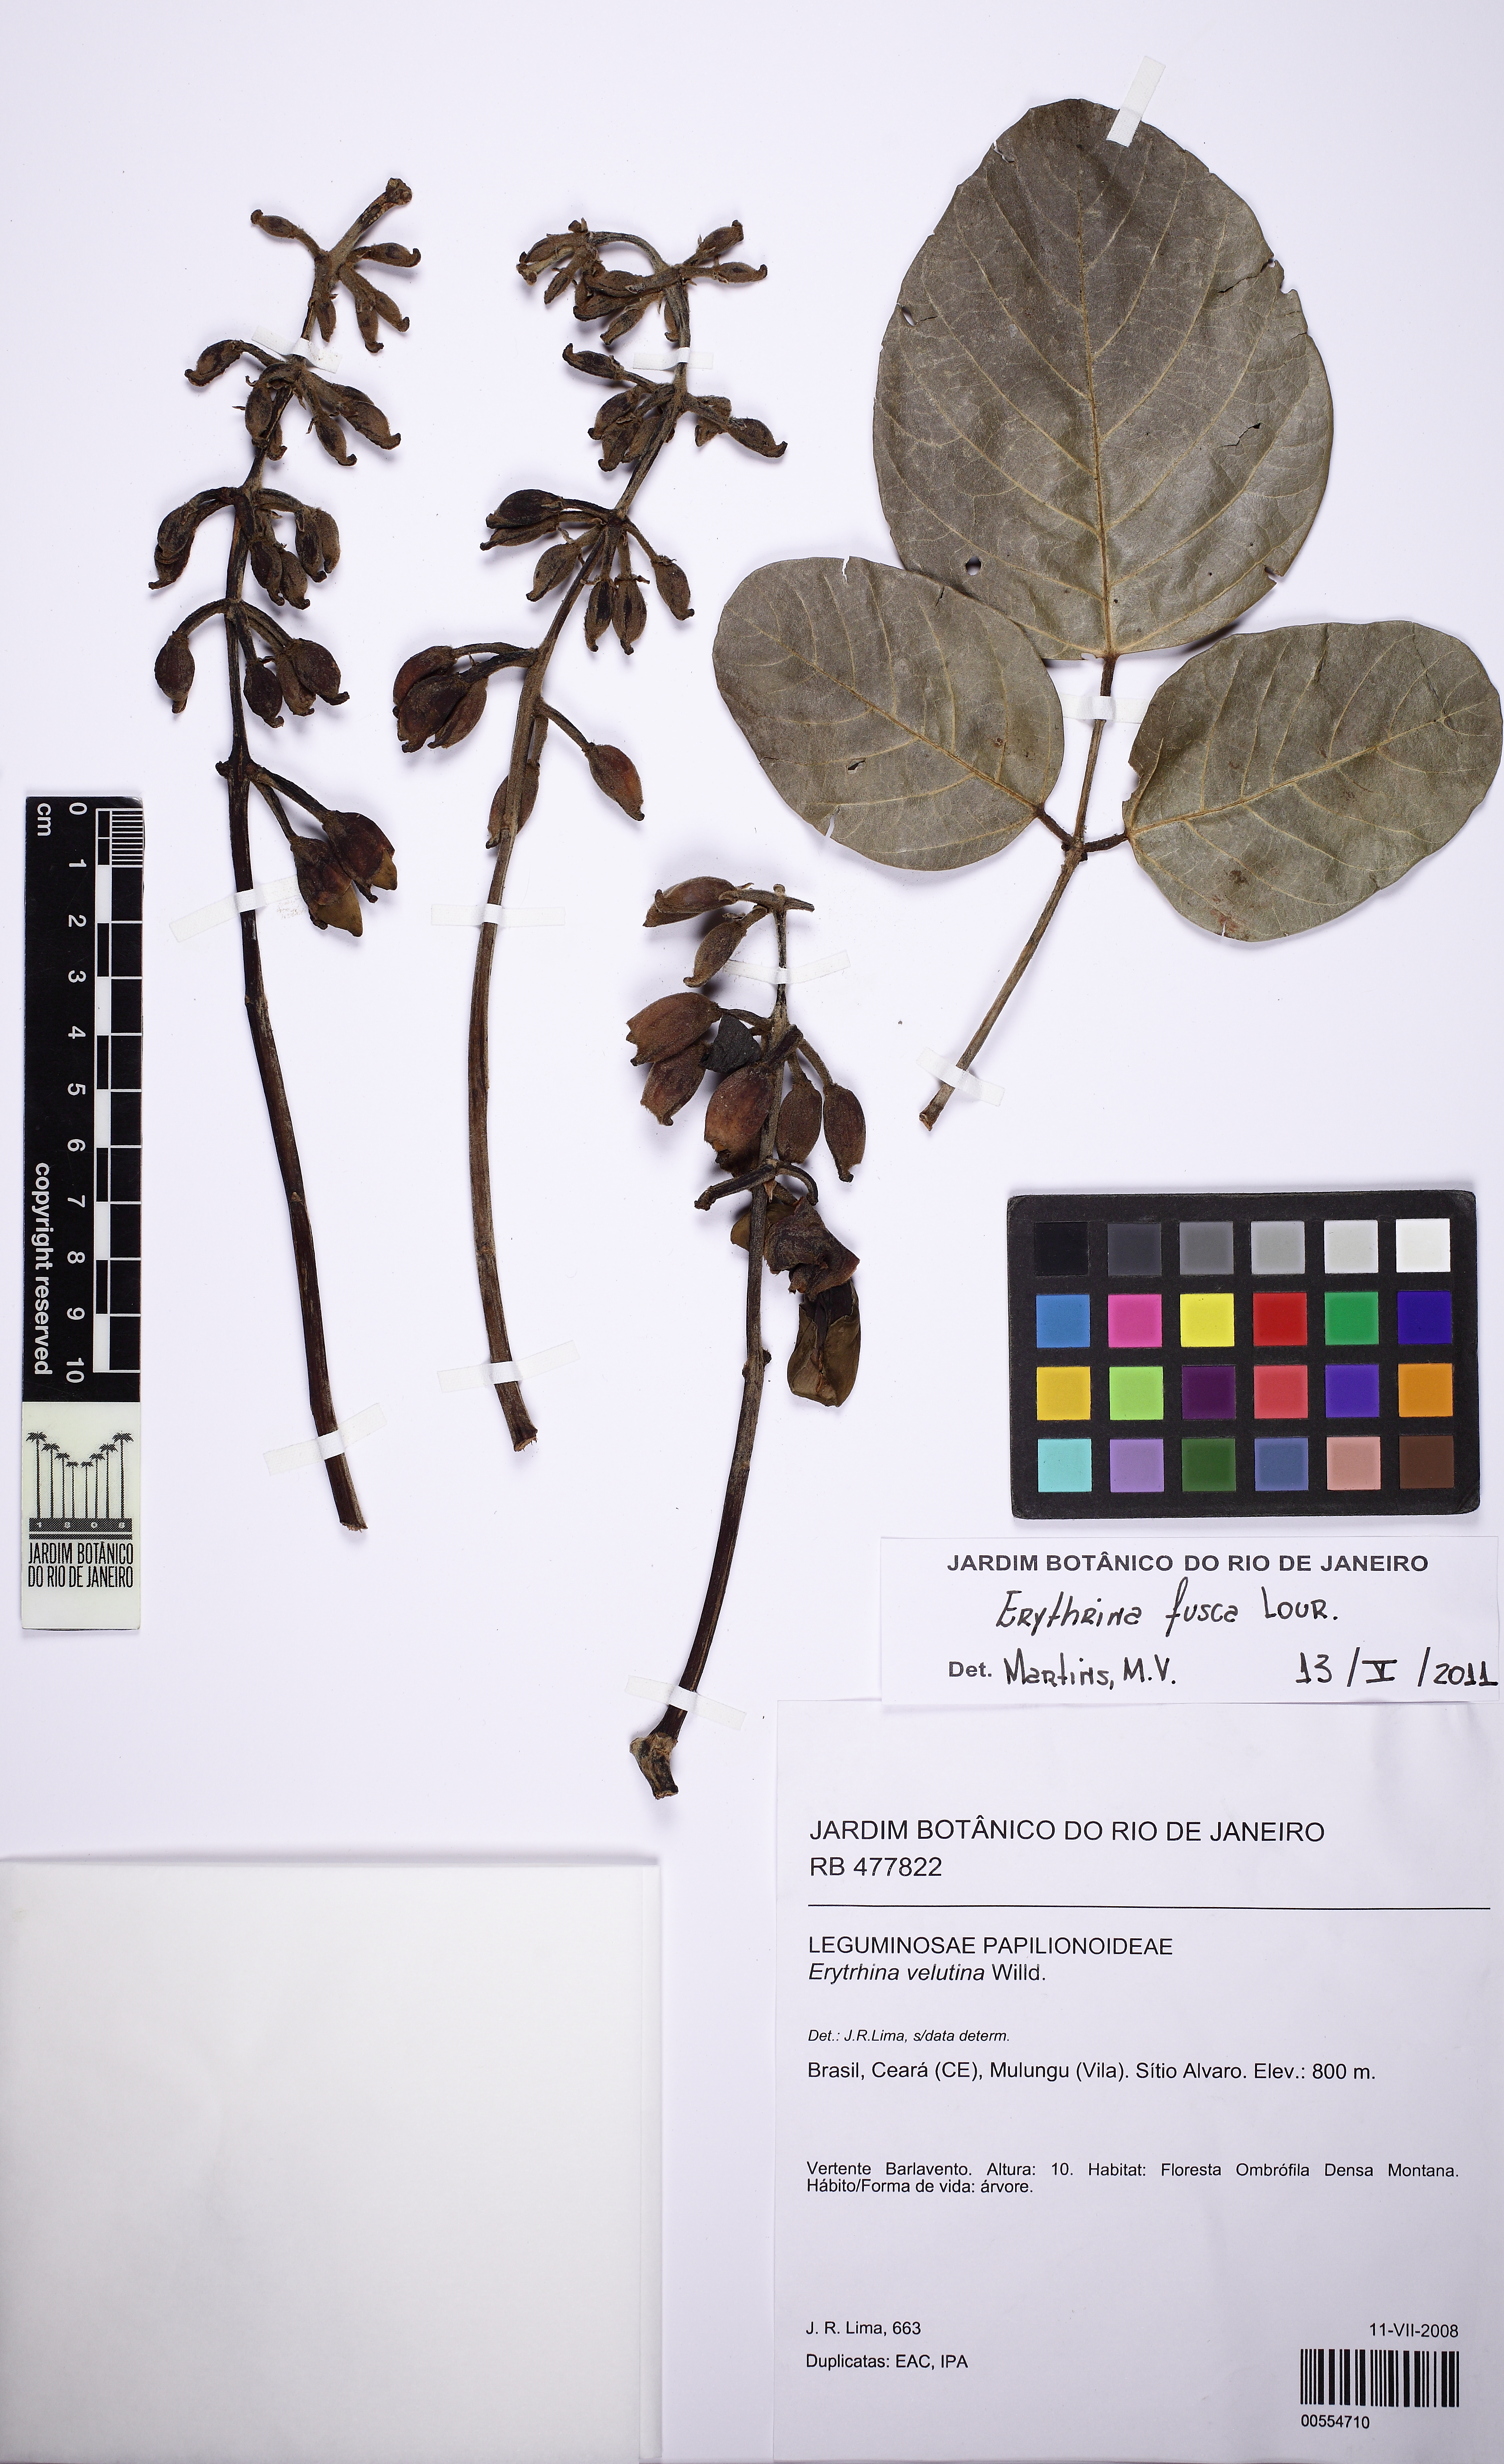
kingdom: Plantae
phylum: Tracheophyta
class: Magnoliopsida
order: Fabales
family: Fabaceae
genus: Erythrina
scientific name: Erythrina fusca
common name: Coral-bean
